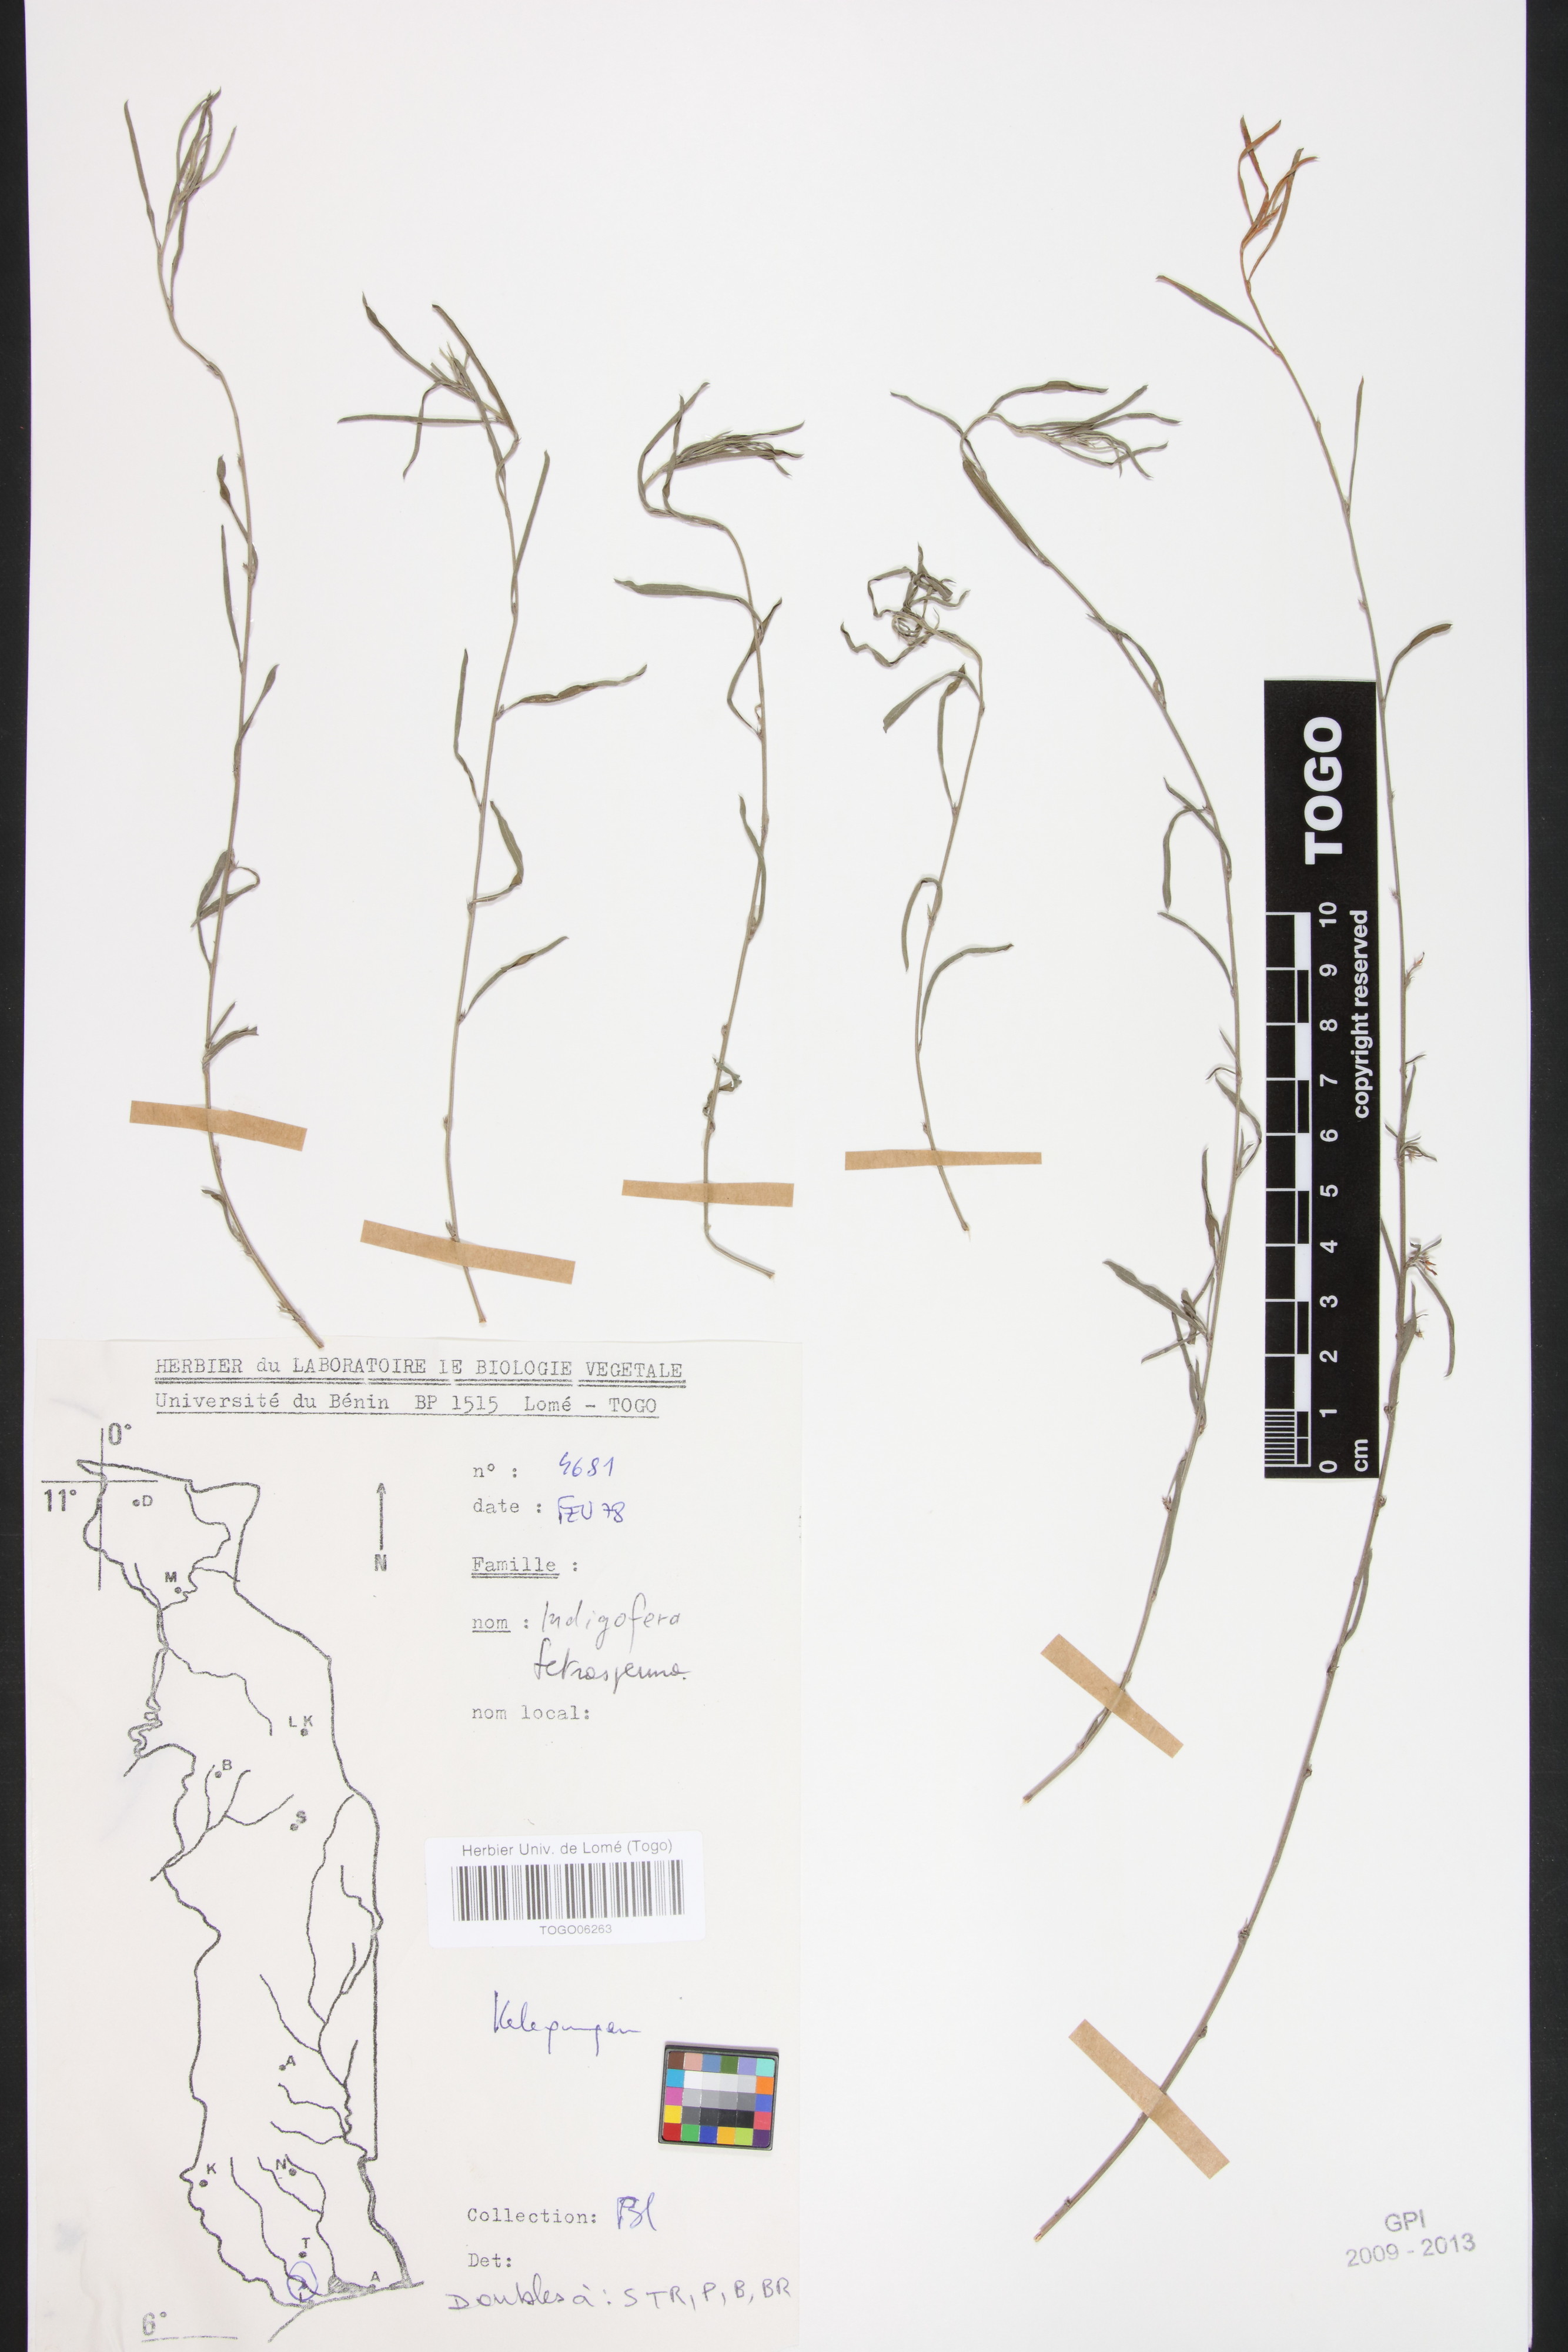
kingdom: Plantae
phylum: Tracheophyta
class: Magnoliopsida
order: Fabales
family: Fabaceae
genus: Indigofera
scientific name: Indigofera tetrasperma
